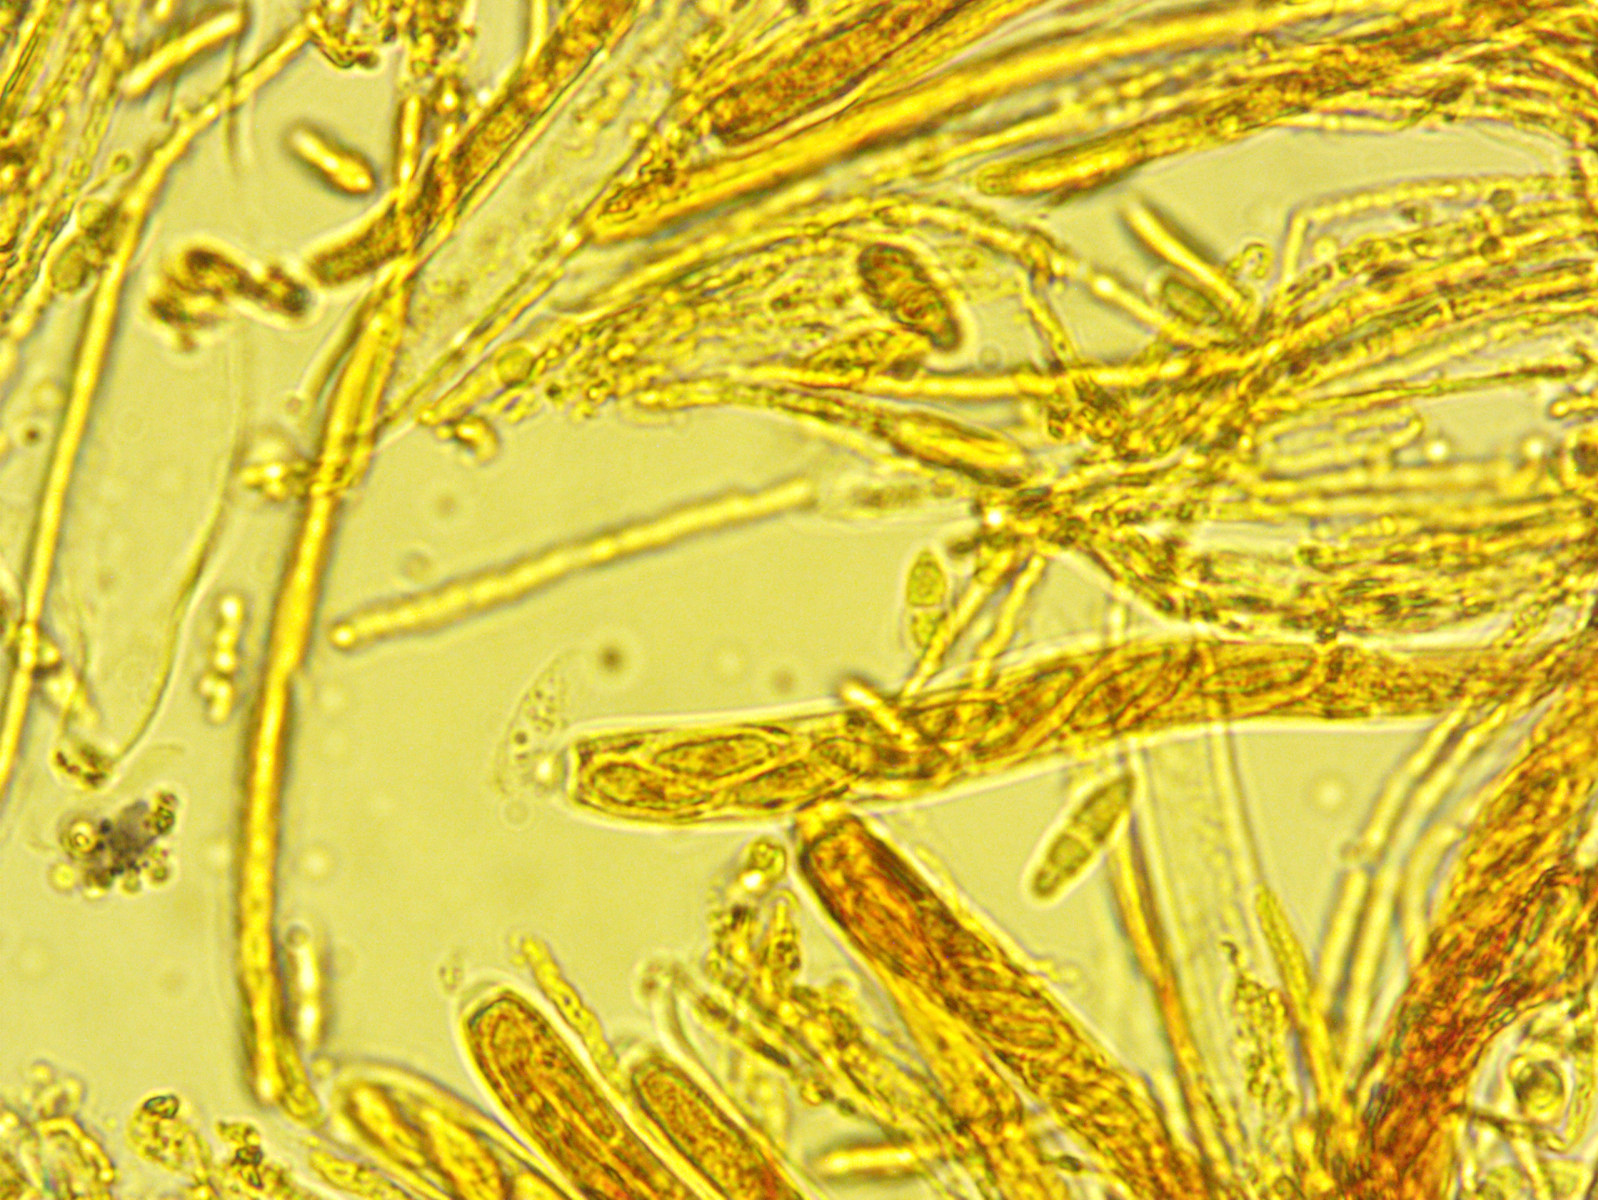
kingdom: Fungi
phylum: Ascomycota
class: Leotiomycetes
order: Helotiales
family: Helotiaceae
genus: Bisporella
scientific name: Bisporella subpallida
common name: lys snitskive
